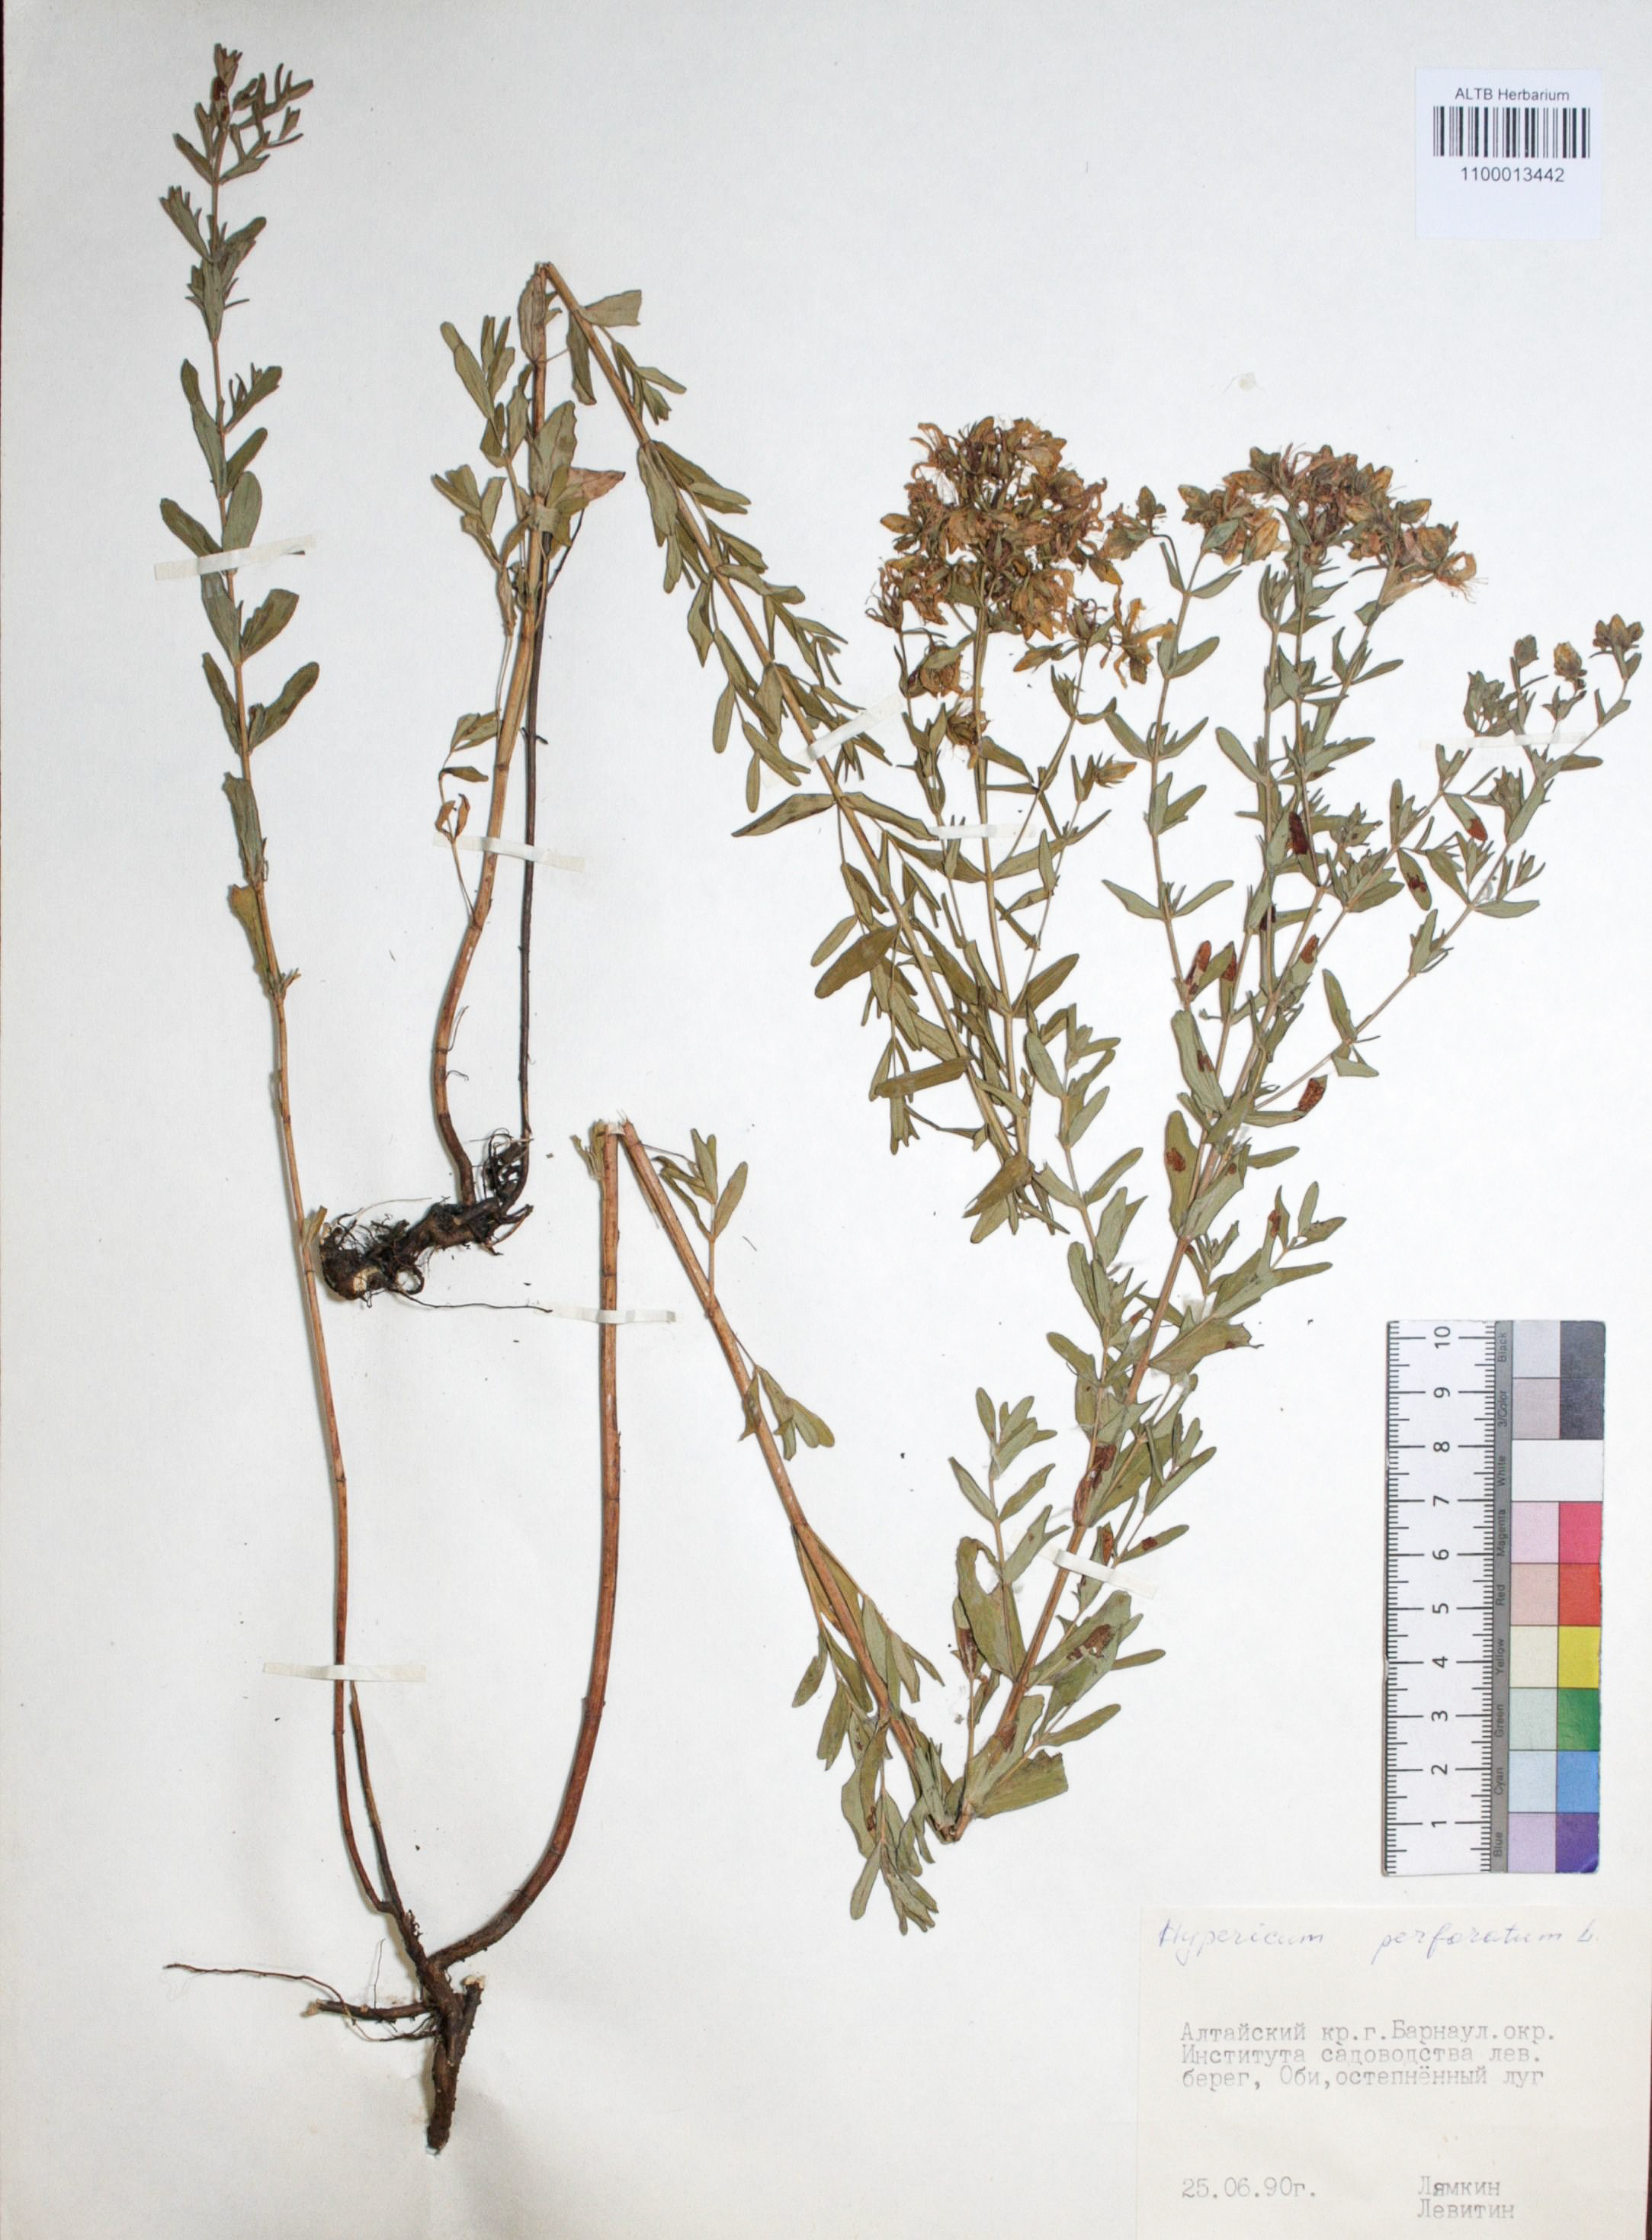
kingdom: Plantae
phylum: Tracheophyta
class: Magnoliopsida
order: Malpighiales
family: Hypericaceae
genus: Hypericum
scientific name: Hypericum perforatum
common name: Common st. johnswort
